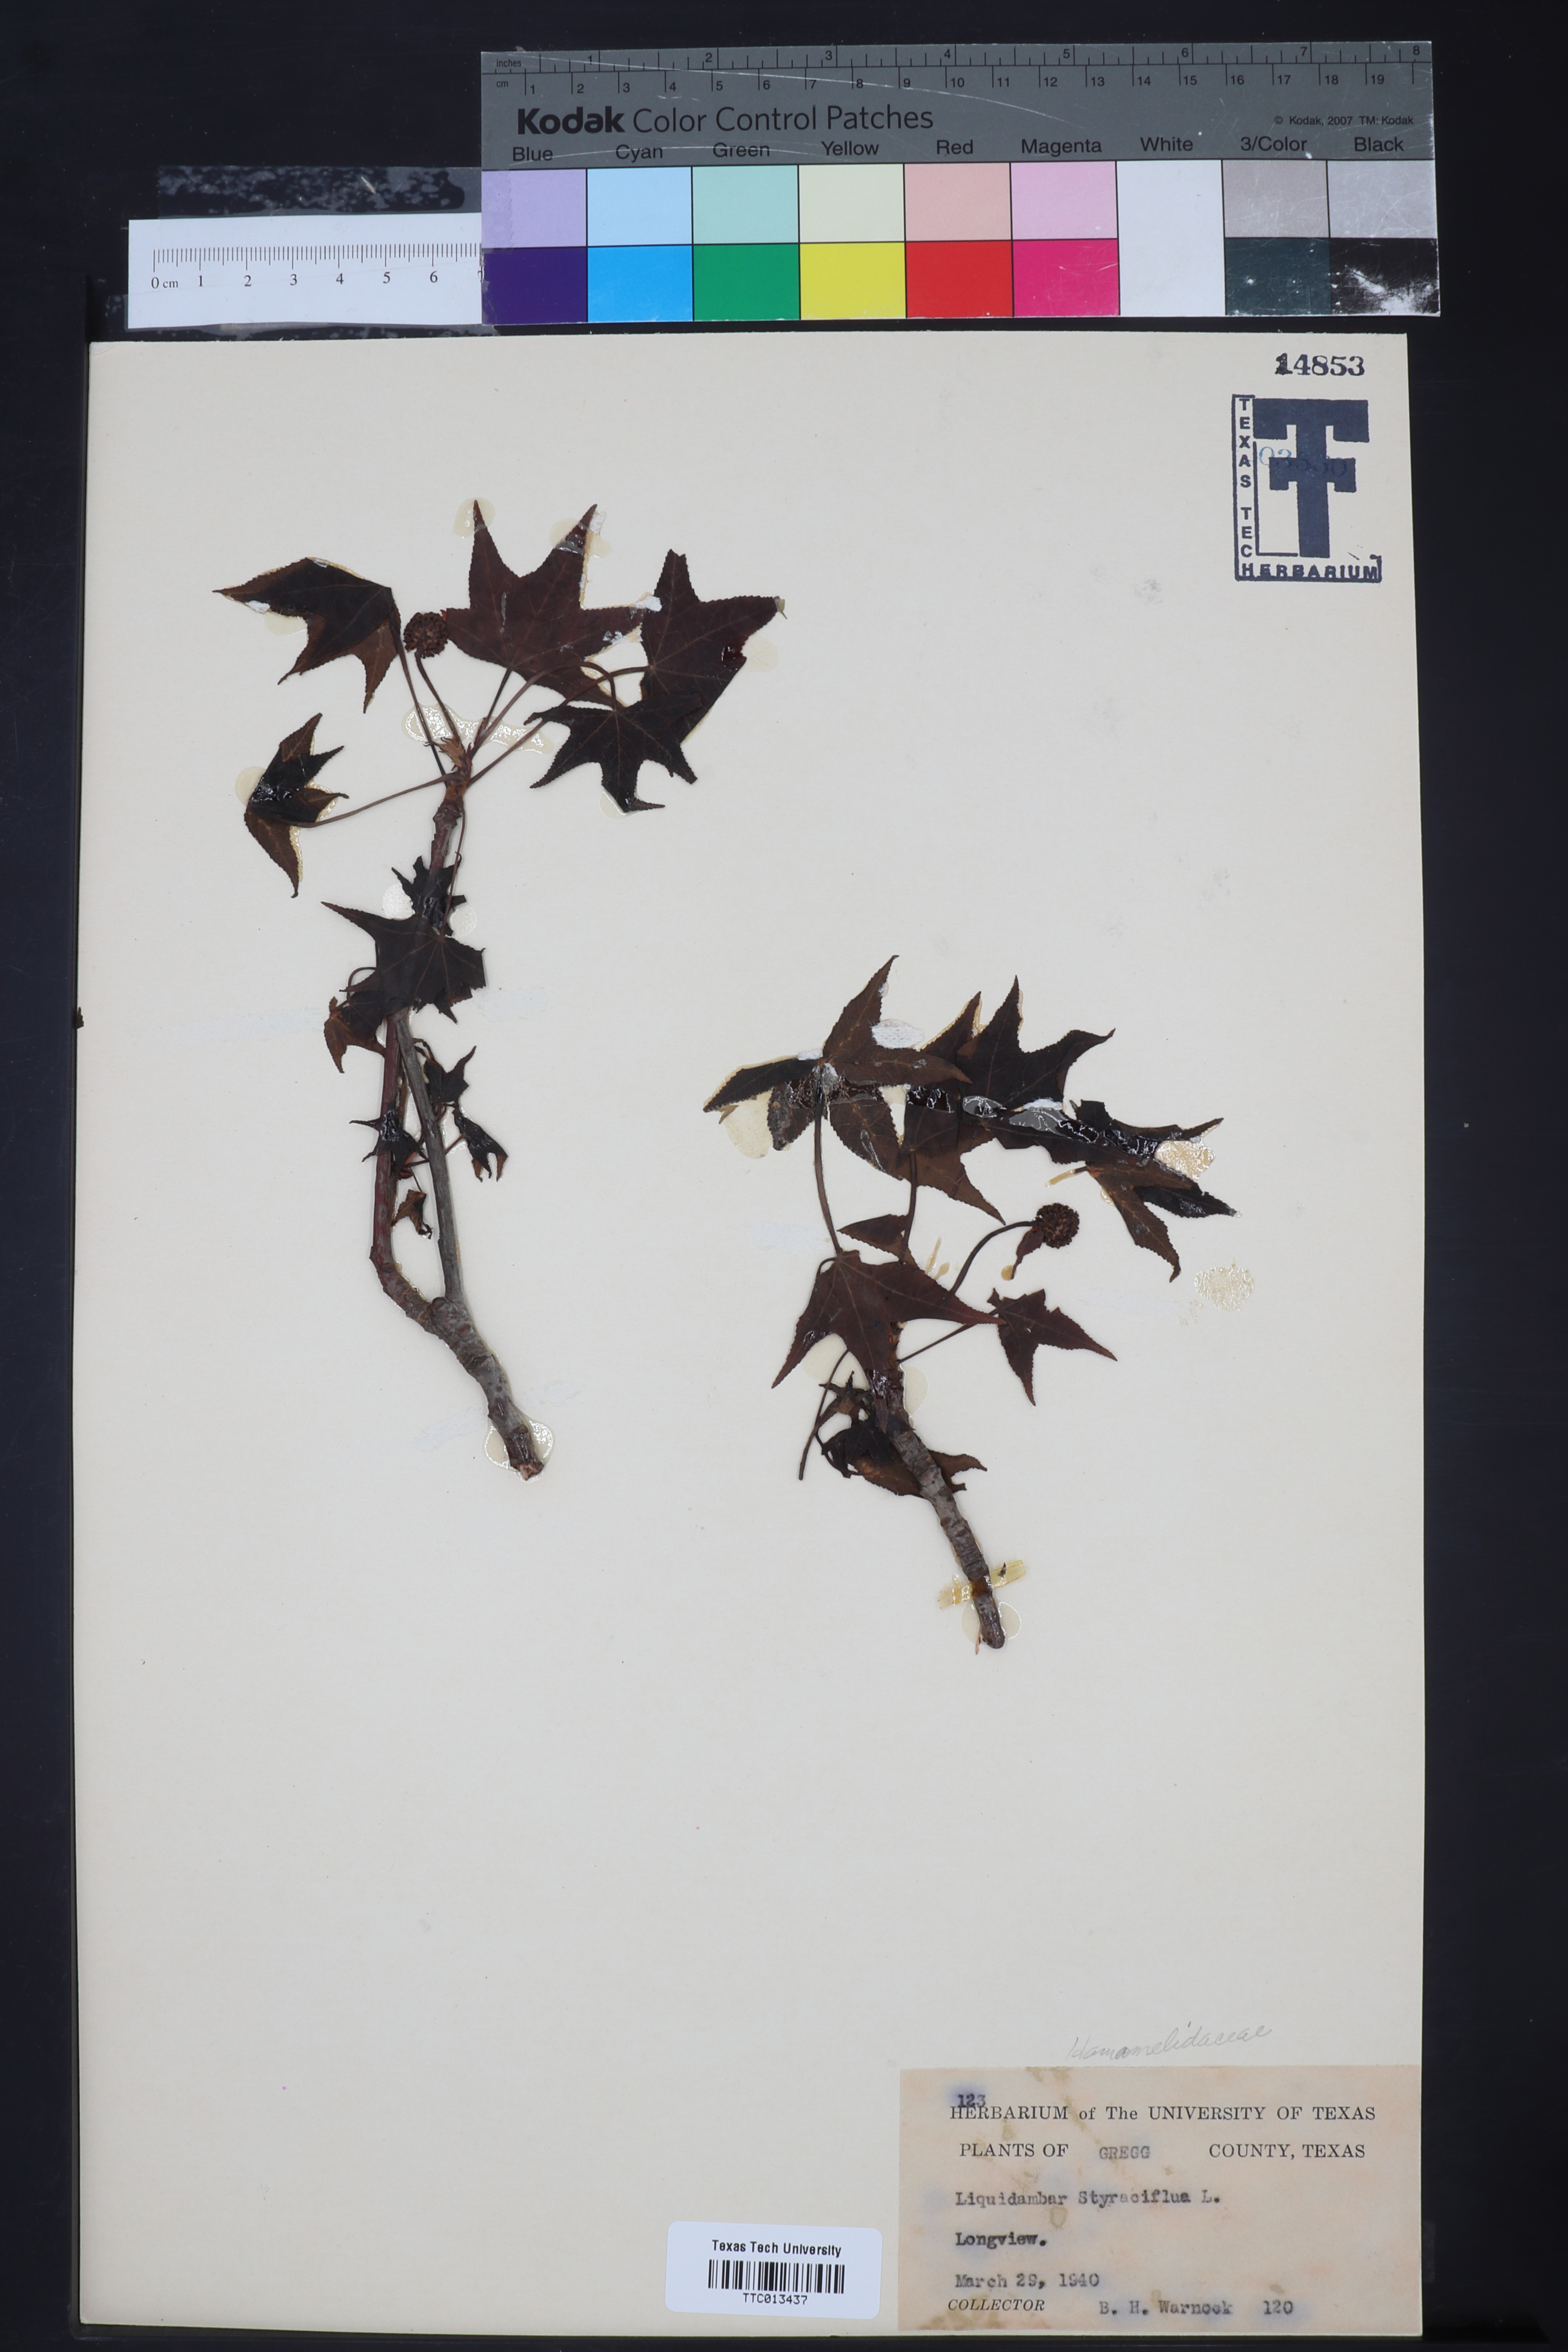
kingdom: Plantae
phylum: Tracheophyta
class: Magnoliopsida
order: Saxifragales
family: Altingiaceae
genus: Liquidambar
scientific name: Liquidambar styraciflua
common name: Sweet gum
